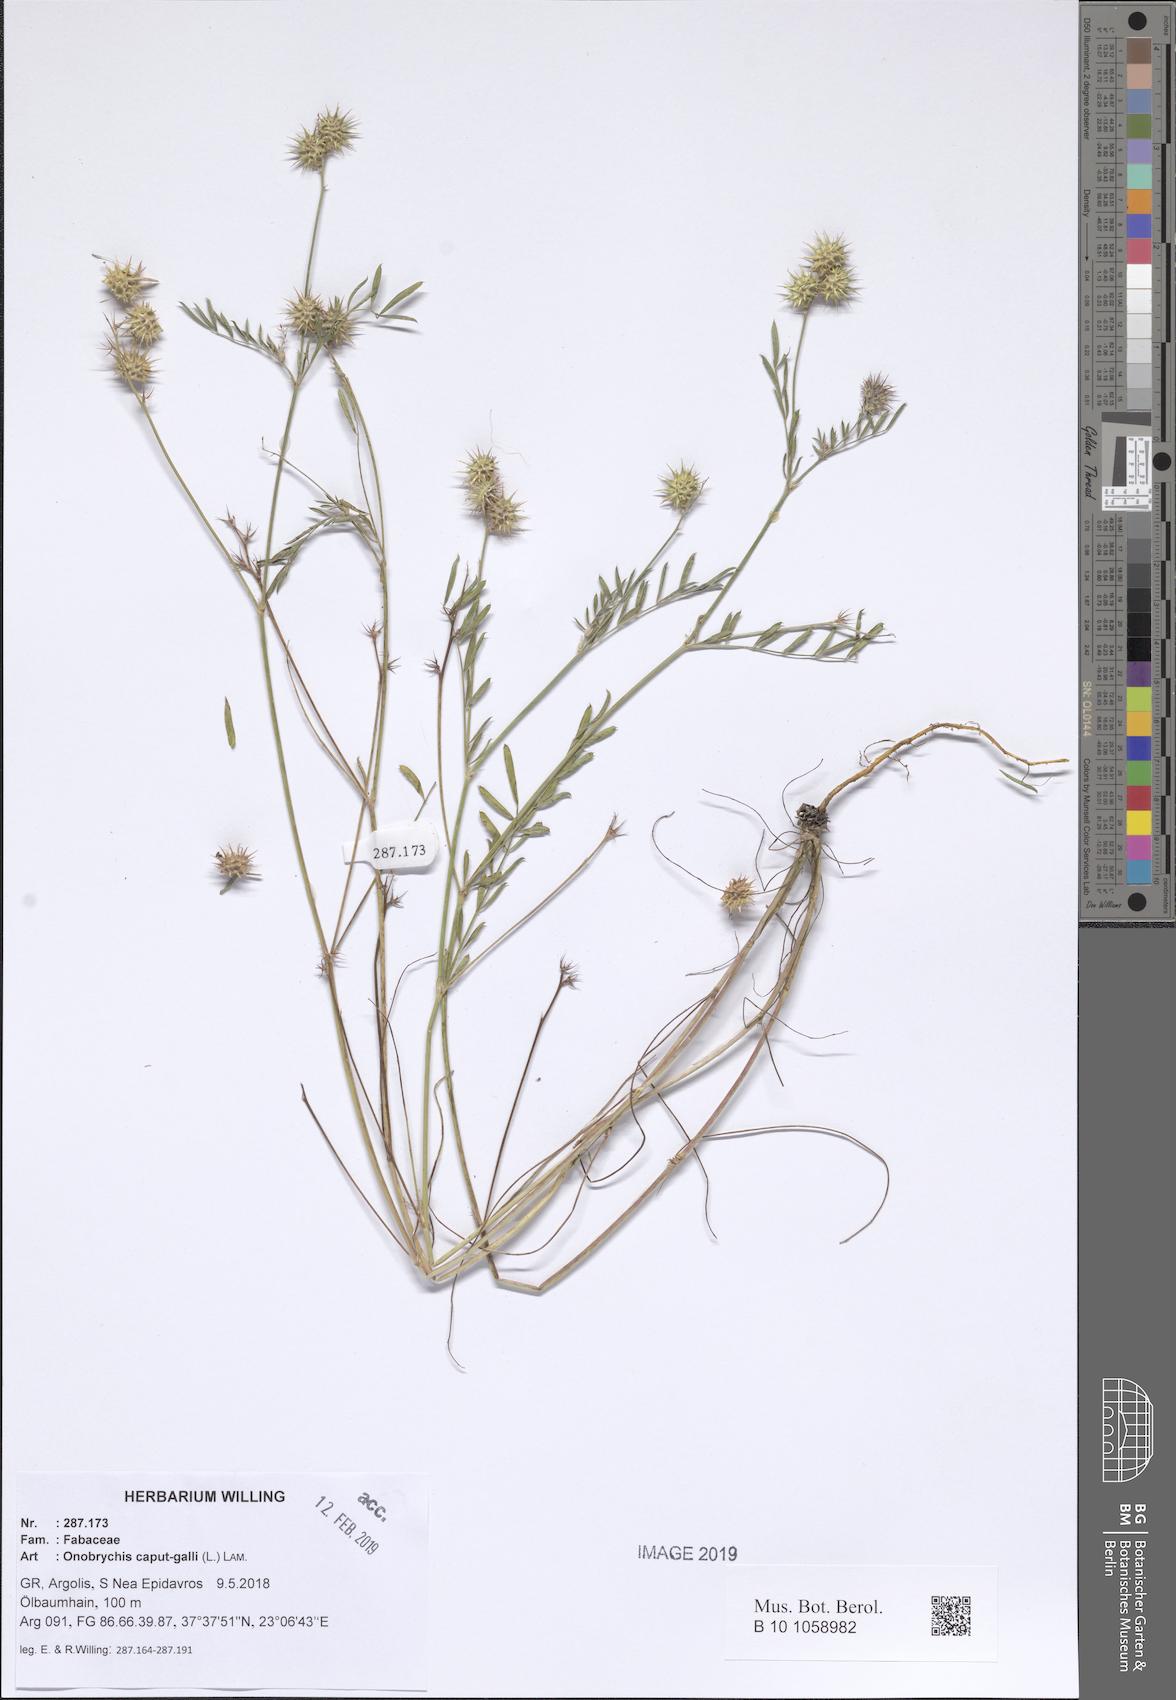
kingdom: Plantae
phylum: Tracheophyta
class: Magnoliopsida
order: Fabales
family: Fabaceae
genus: Onobrychis
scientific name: Onobrychis caput-galli
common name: Cockscomb sainfoin
